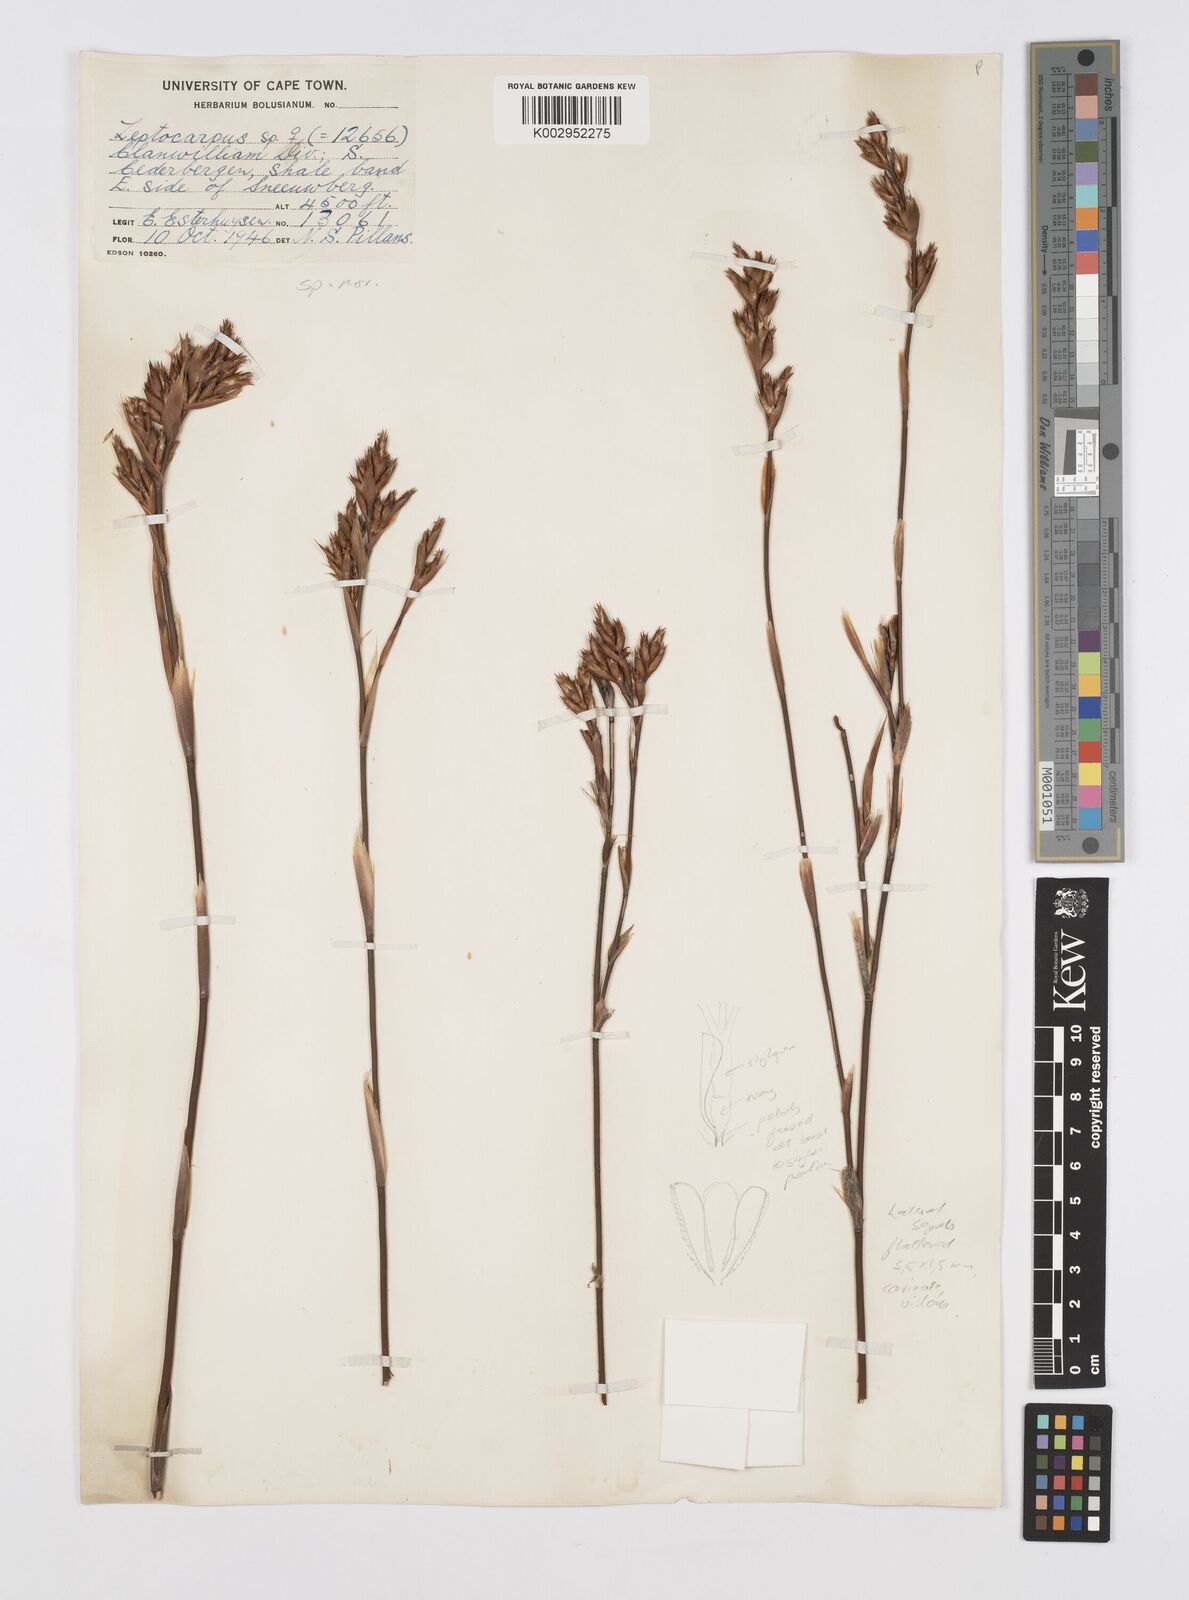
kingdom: Plantae
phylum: Tracheophyta
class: Liliopsida
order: Poales
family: Restionaceae
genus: Restio
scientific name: Restio
